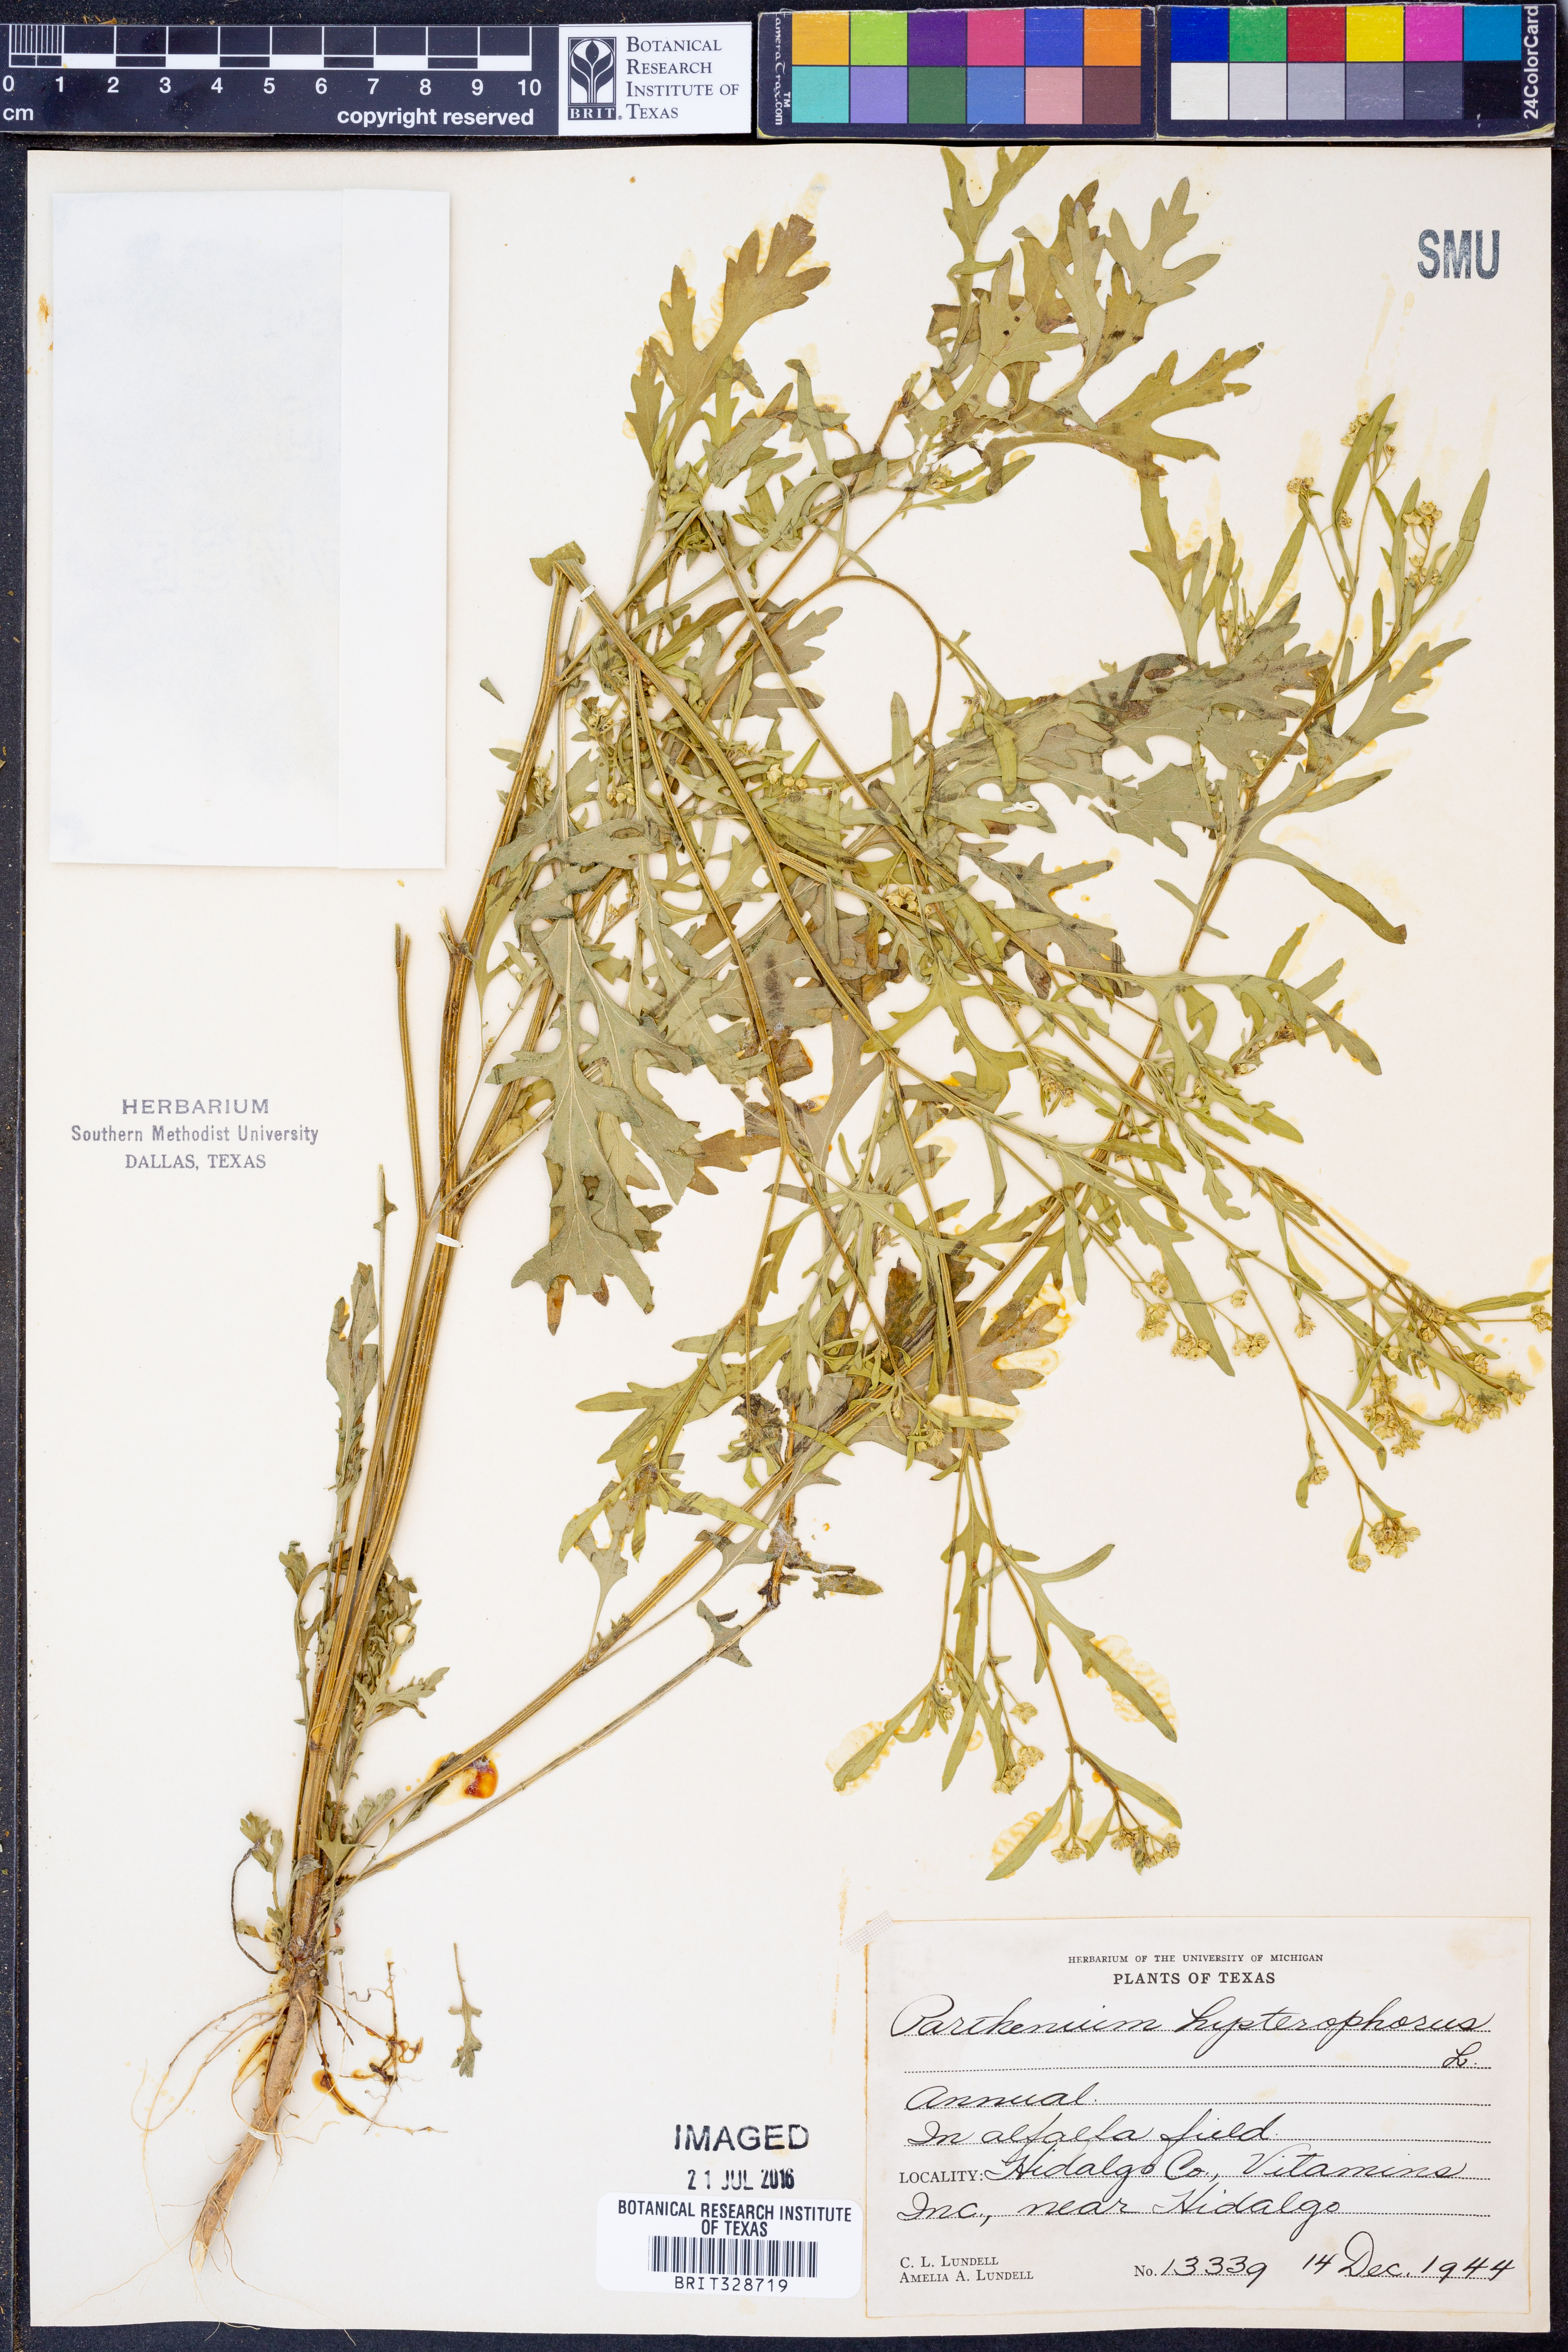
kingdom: Plantae
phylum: Tracheophyta
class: Magnoliopsida
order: Asterales
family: Asteraceae
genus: Parthenium
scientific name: Parthenium hysterophorus
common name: Santa maria feverfew
